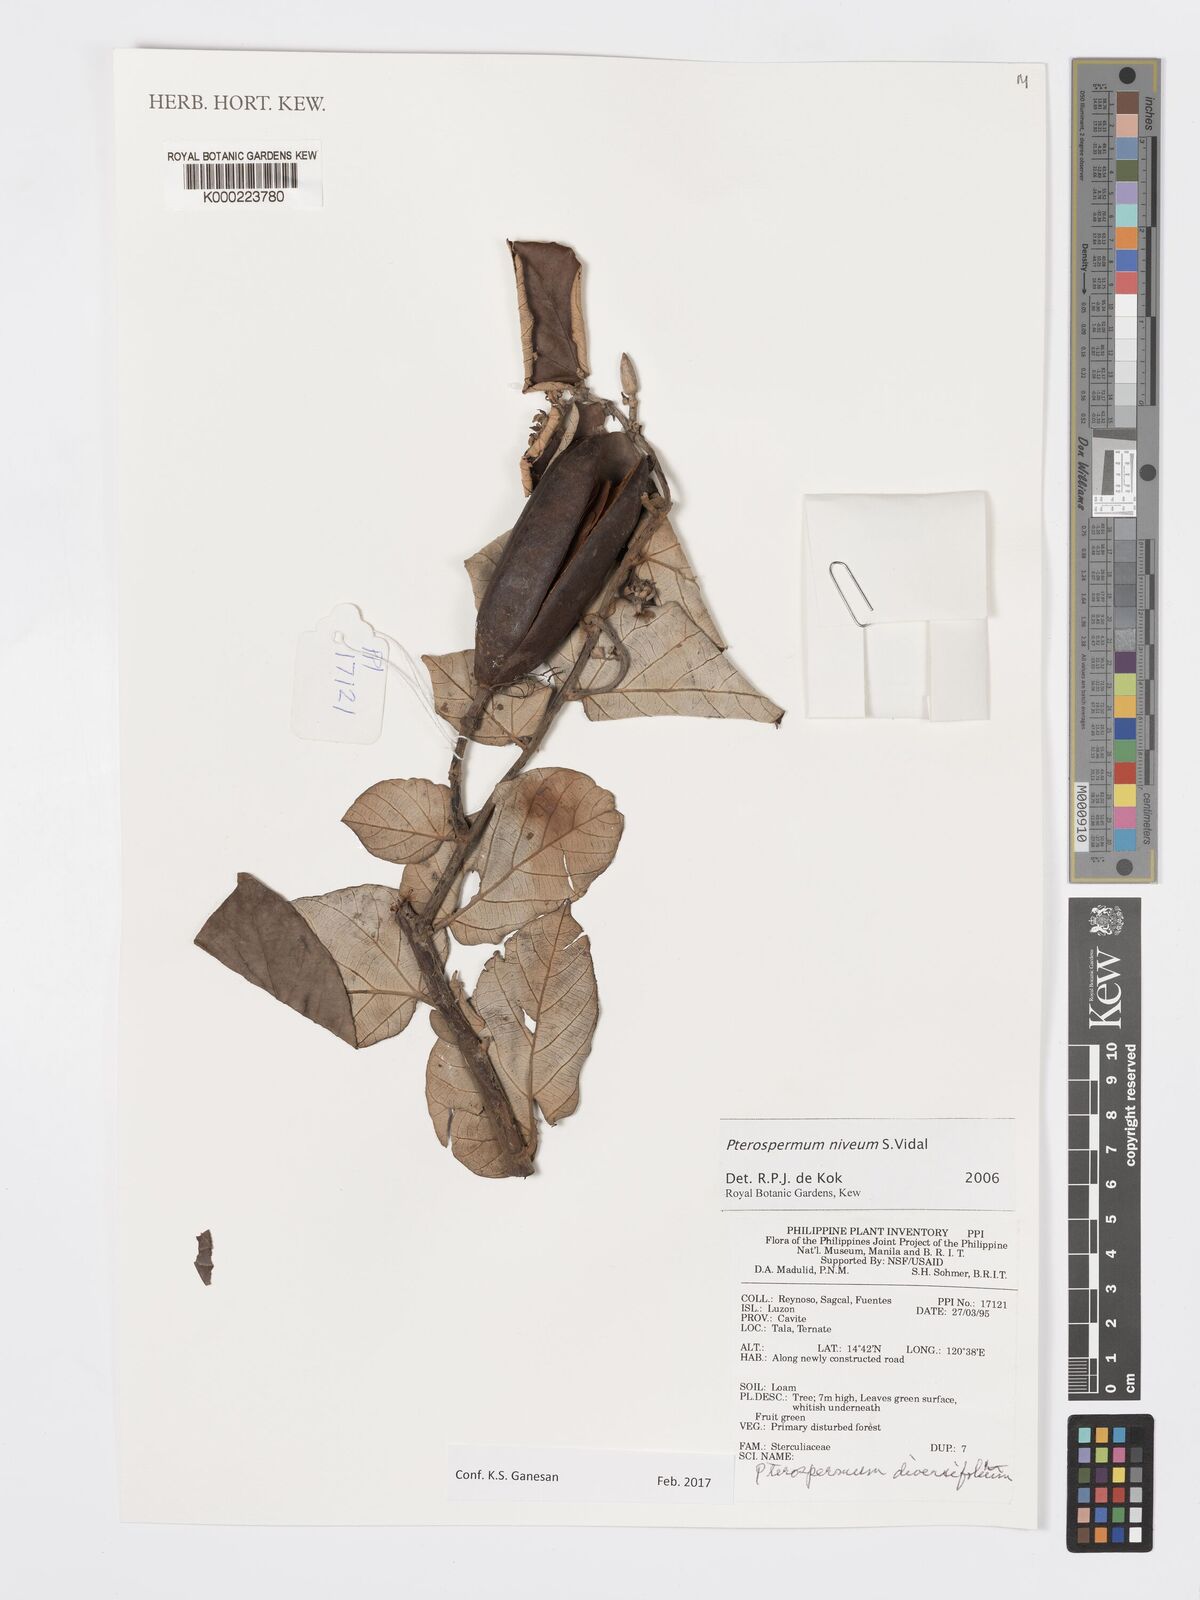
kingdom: Plantae
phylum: Tracheophyta
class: Magnoliopsida
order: Malvales
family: Malvaceae
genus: Pterospermum
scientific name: Pterospermum niveum
